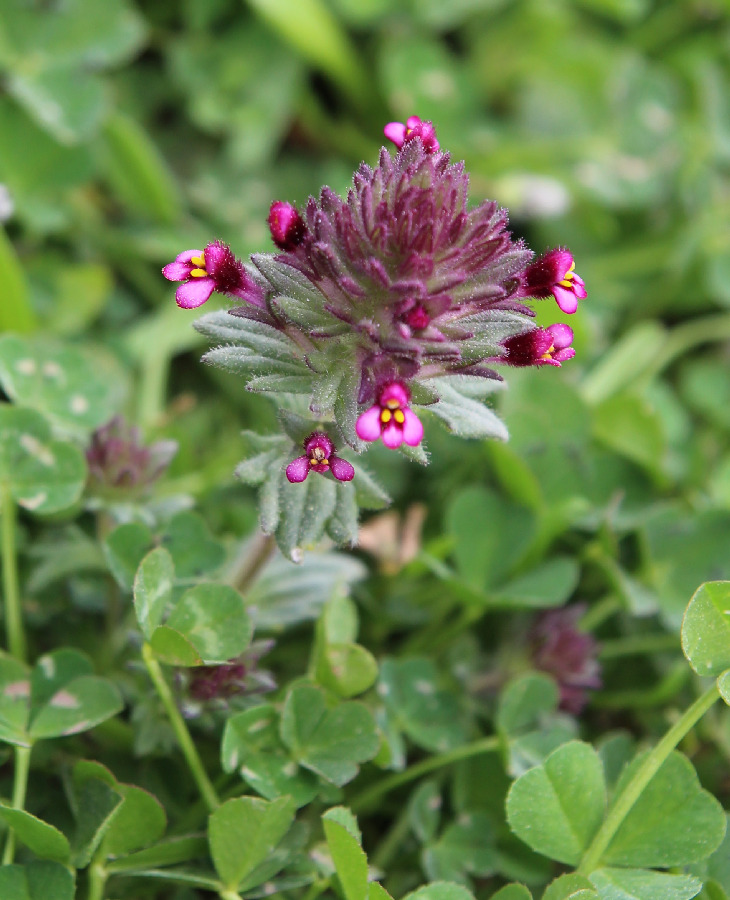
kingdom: Plantae
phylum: Tracheophyta
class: Magnoliopsida
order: Lamiales
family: Orobanchaceae
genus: Parentucellia
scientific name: Parentucellia latifolia
